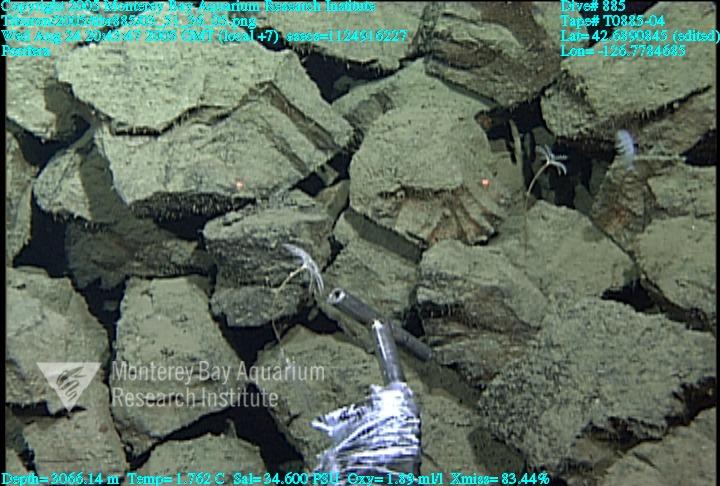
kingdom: Animalia
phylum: Porifera
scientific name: Porifera
